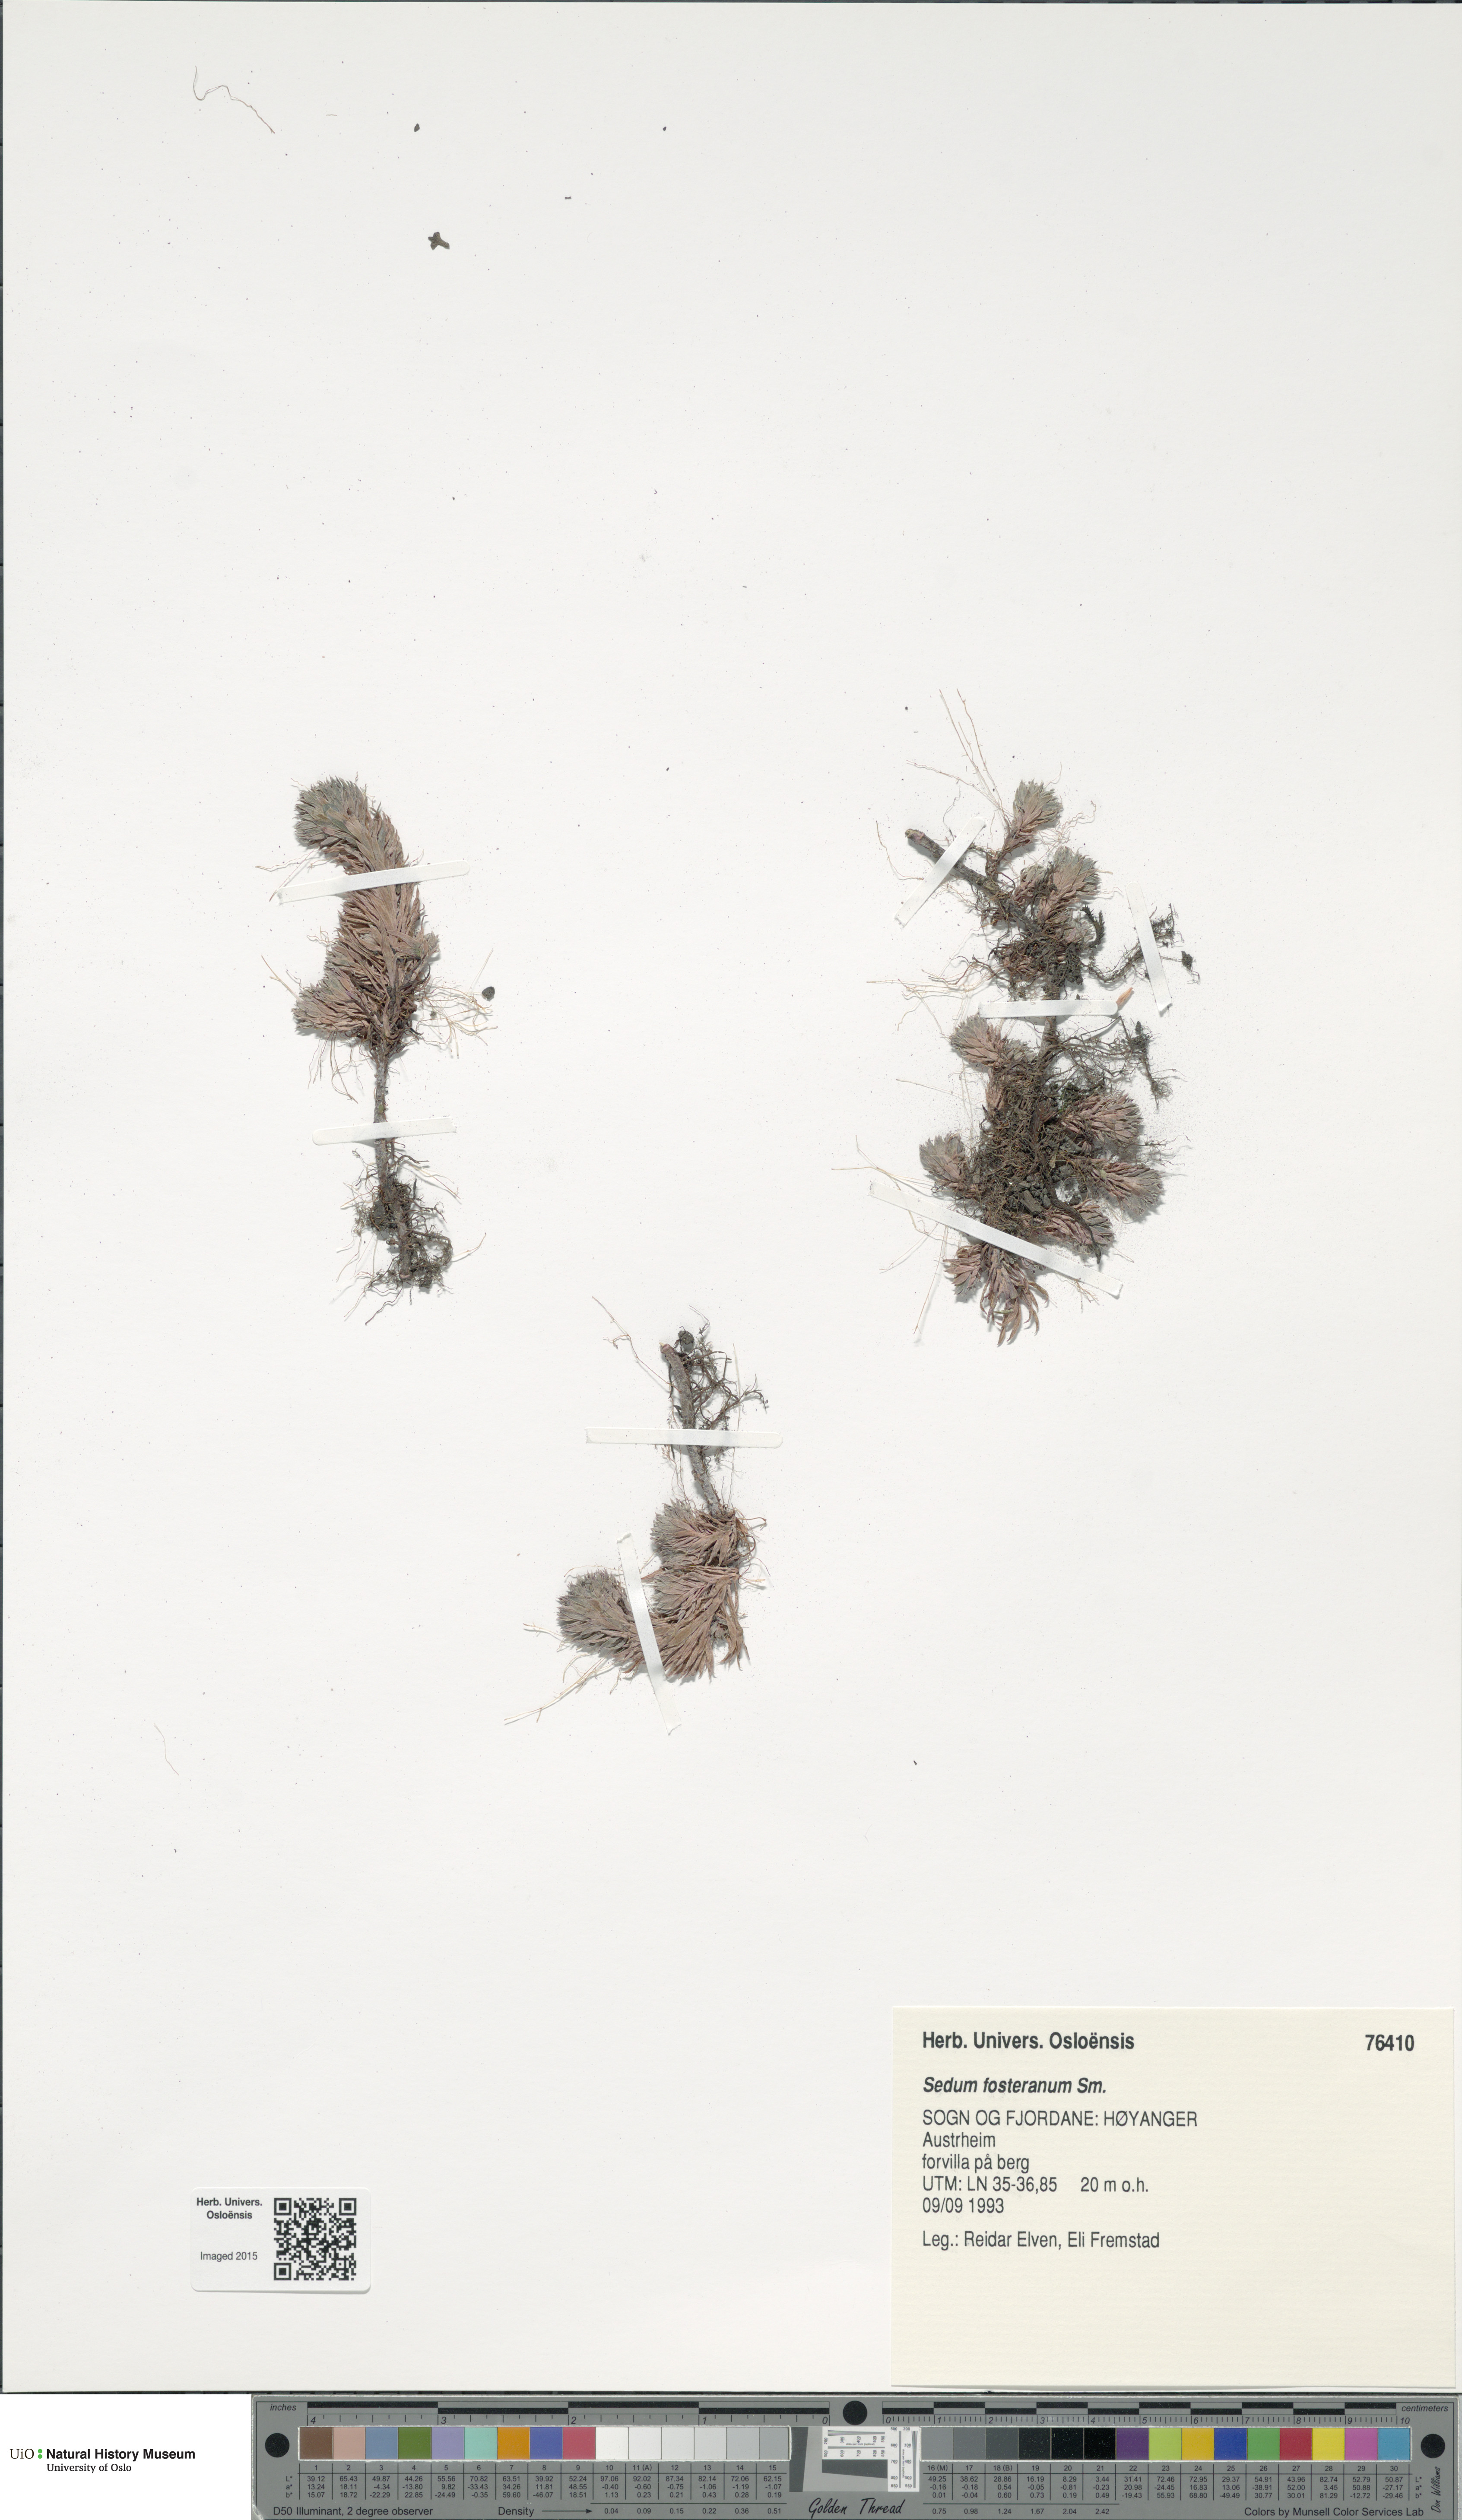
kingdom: Plantae
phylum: Tracheophyta
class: Magnoliopsida
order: Saxifragales
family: Crassulaceae
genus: Petrosedum
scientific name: Petrosedum forsterianum
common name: Forster's stonecrop
